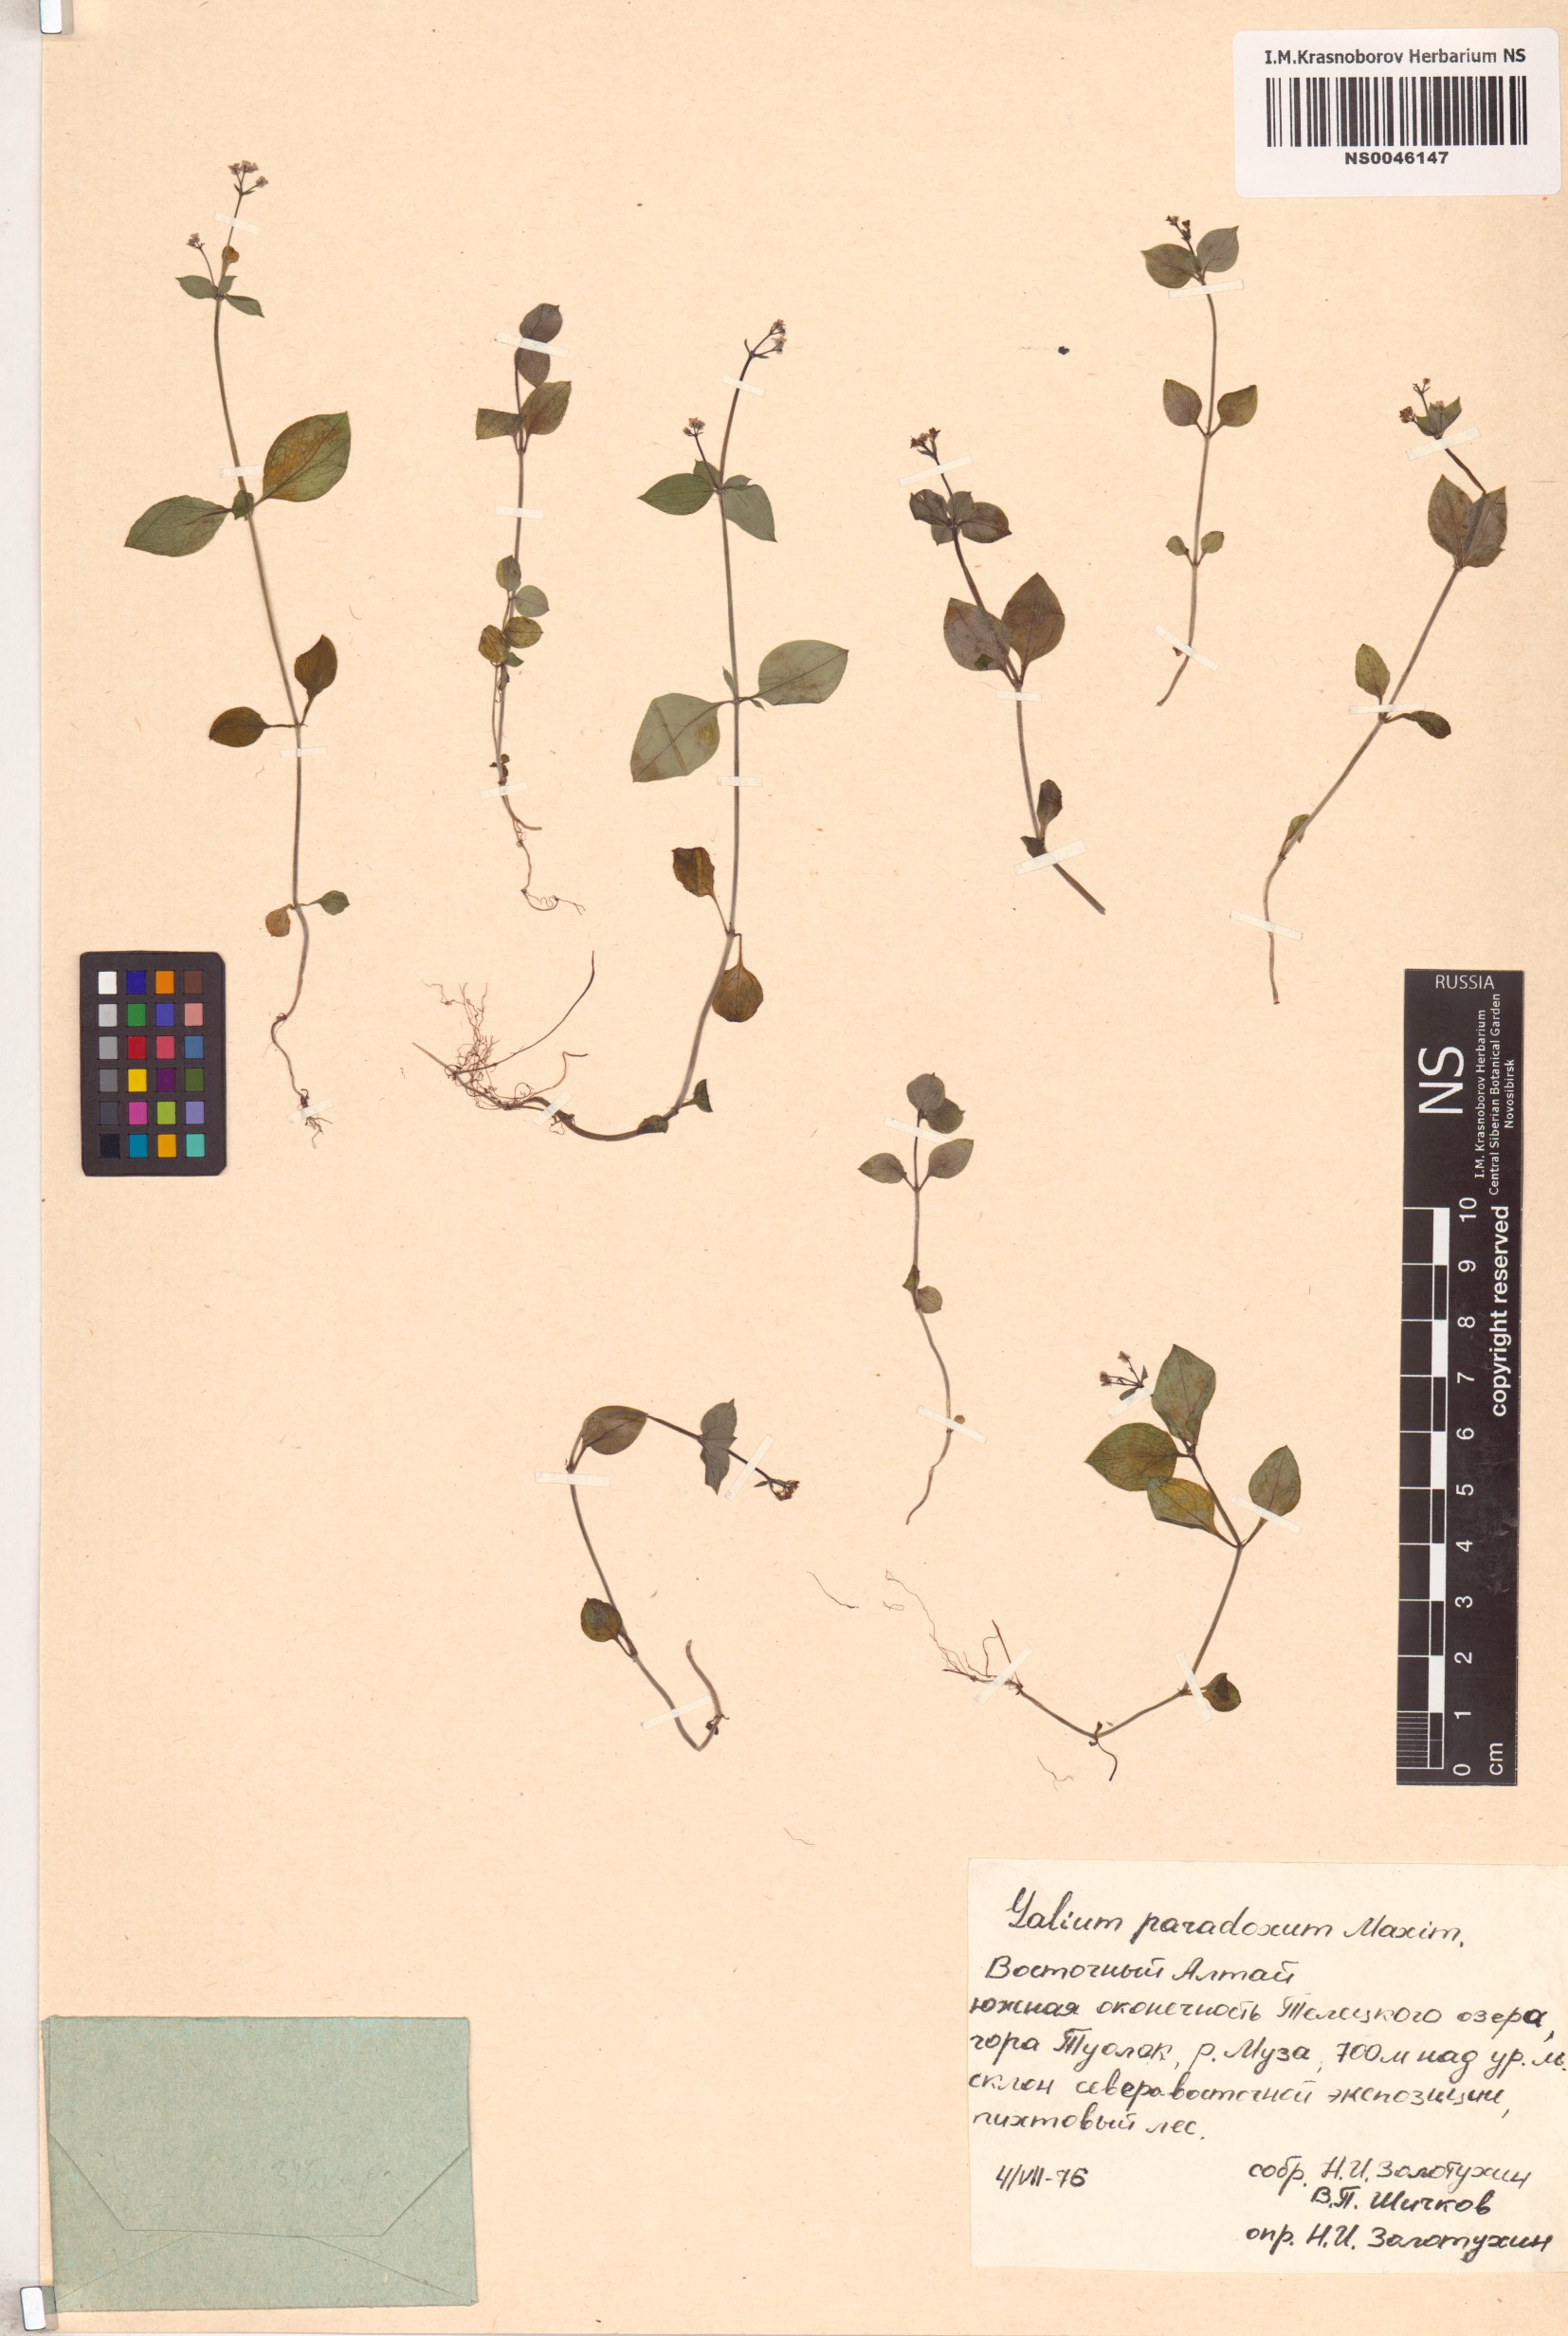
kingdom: Plantae
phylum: Tracheophyta
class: Magnoliopsida
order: Gentianales
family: Rubiaceae
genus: Pseudogalium
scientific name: Pseudogalium paradoxum
